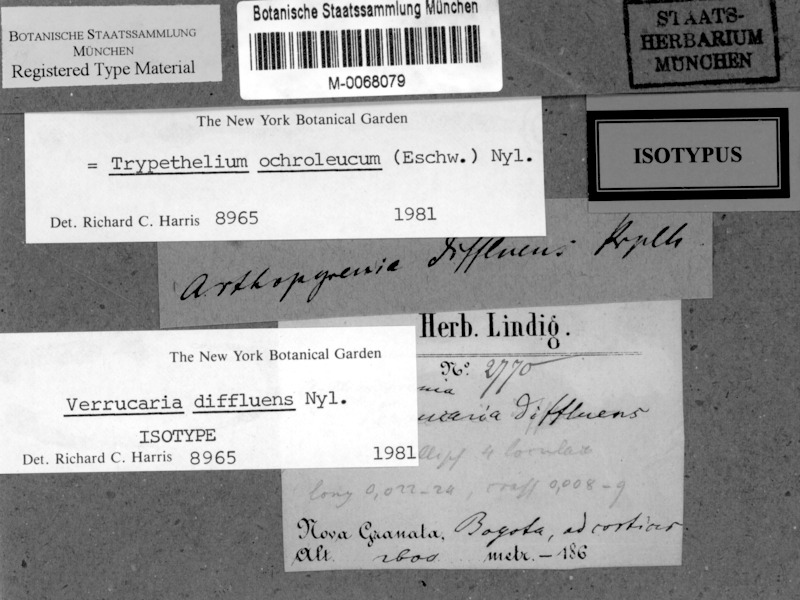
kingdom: Fungi
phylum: Ascomycota
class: Dothideomycetes
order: Trypetheliales
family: Trypetheliaceae
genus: Trypethelium
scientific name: Trypethelium ochroleucum
